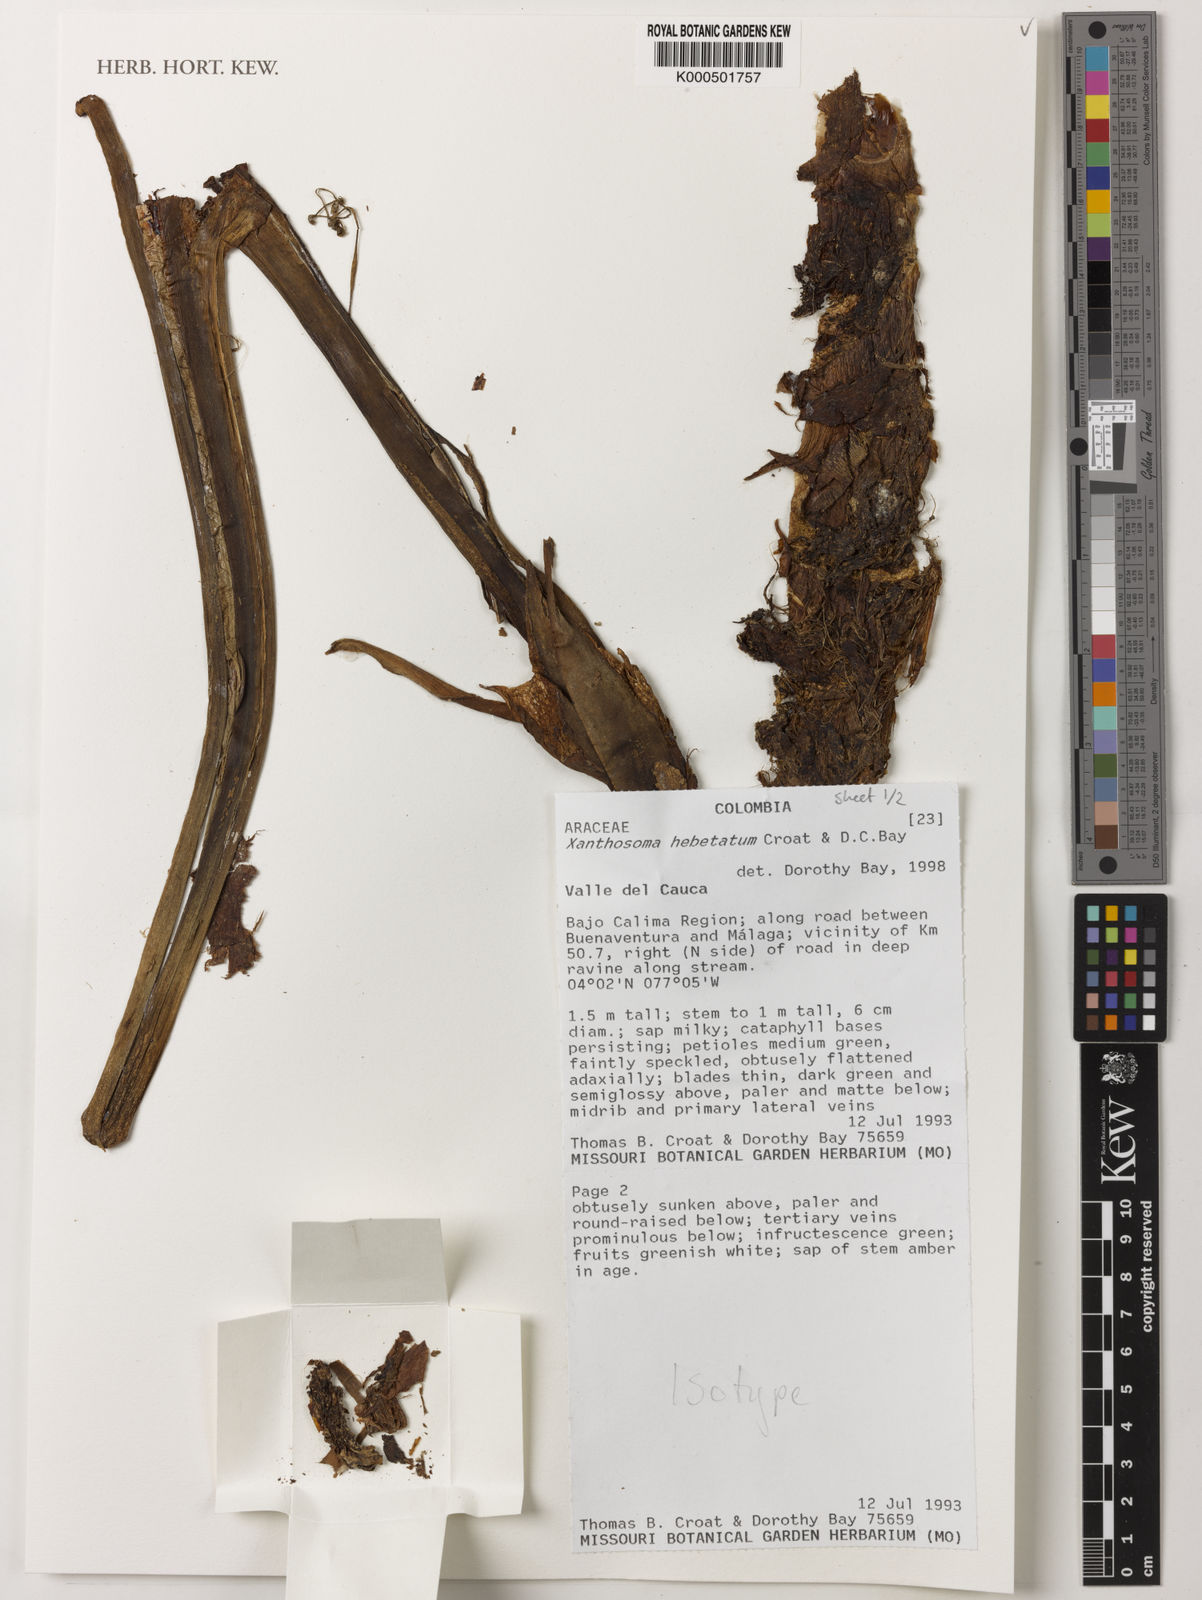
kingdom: Plantae
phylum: Tracheophyta
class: Liliopsida
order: Alismatales
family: Araceae
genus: Xanthosoma
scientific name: Xanthosoma hebetatum
